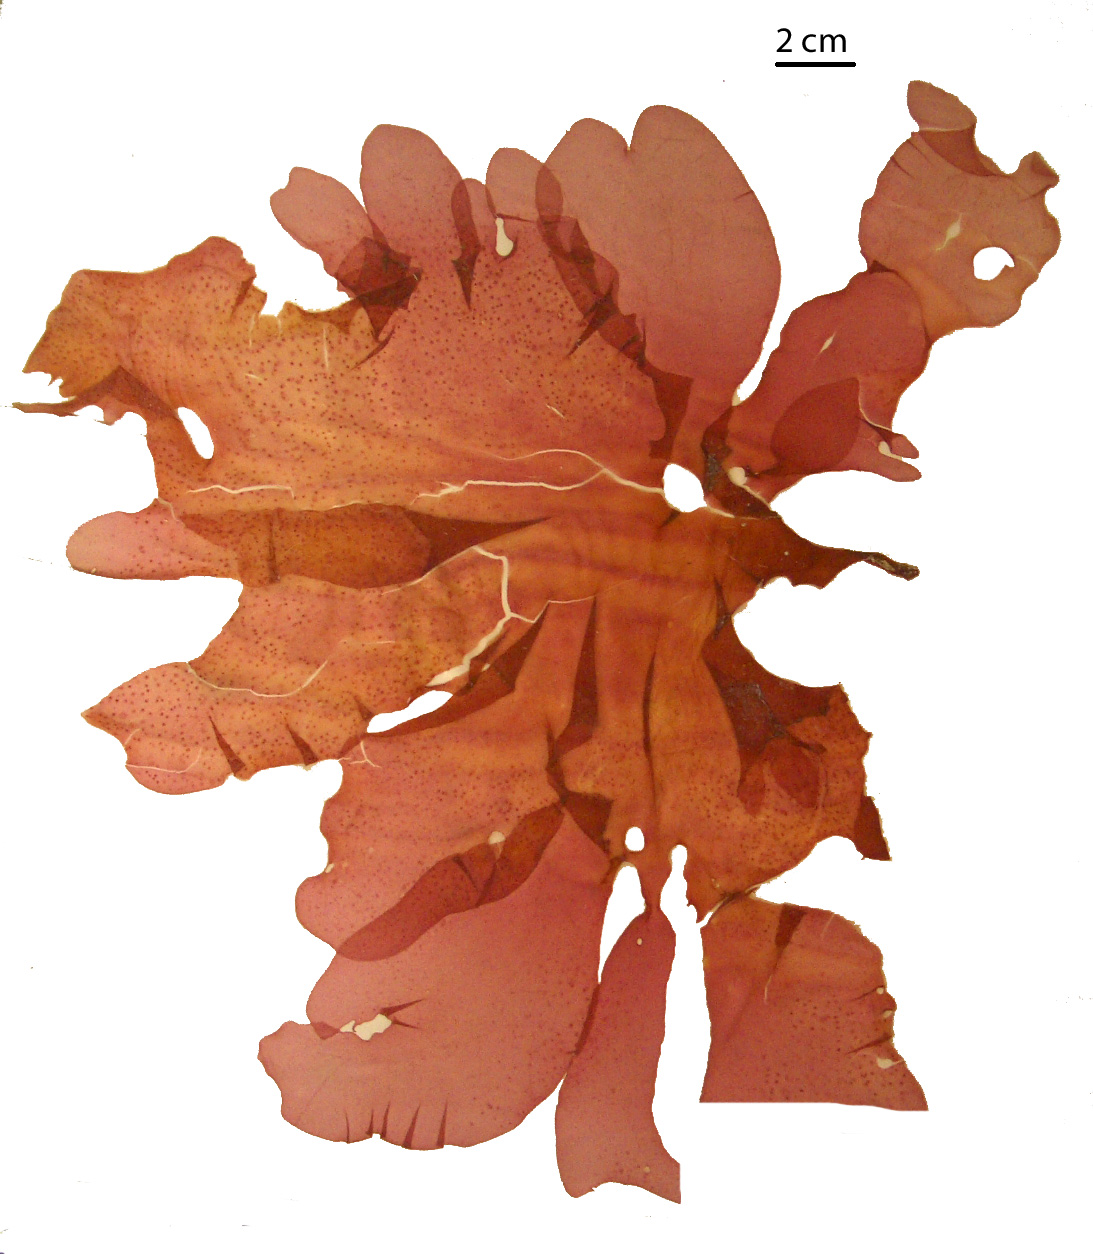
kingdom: Plantae
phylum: Rhodophyta
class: Florideophyceae
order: Gigartinales
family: Kallymeniaceae
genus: Psaromenia
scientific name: Psaromenia berggrenii
